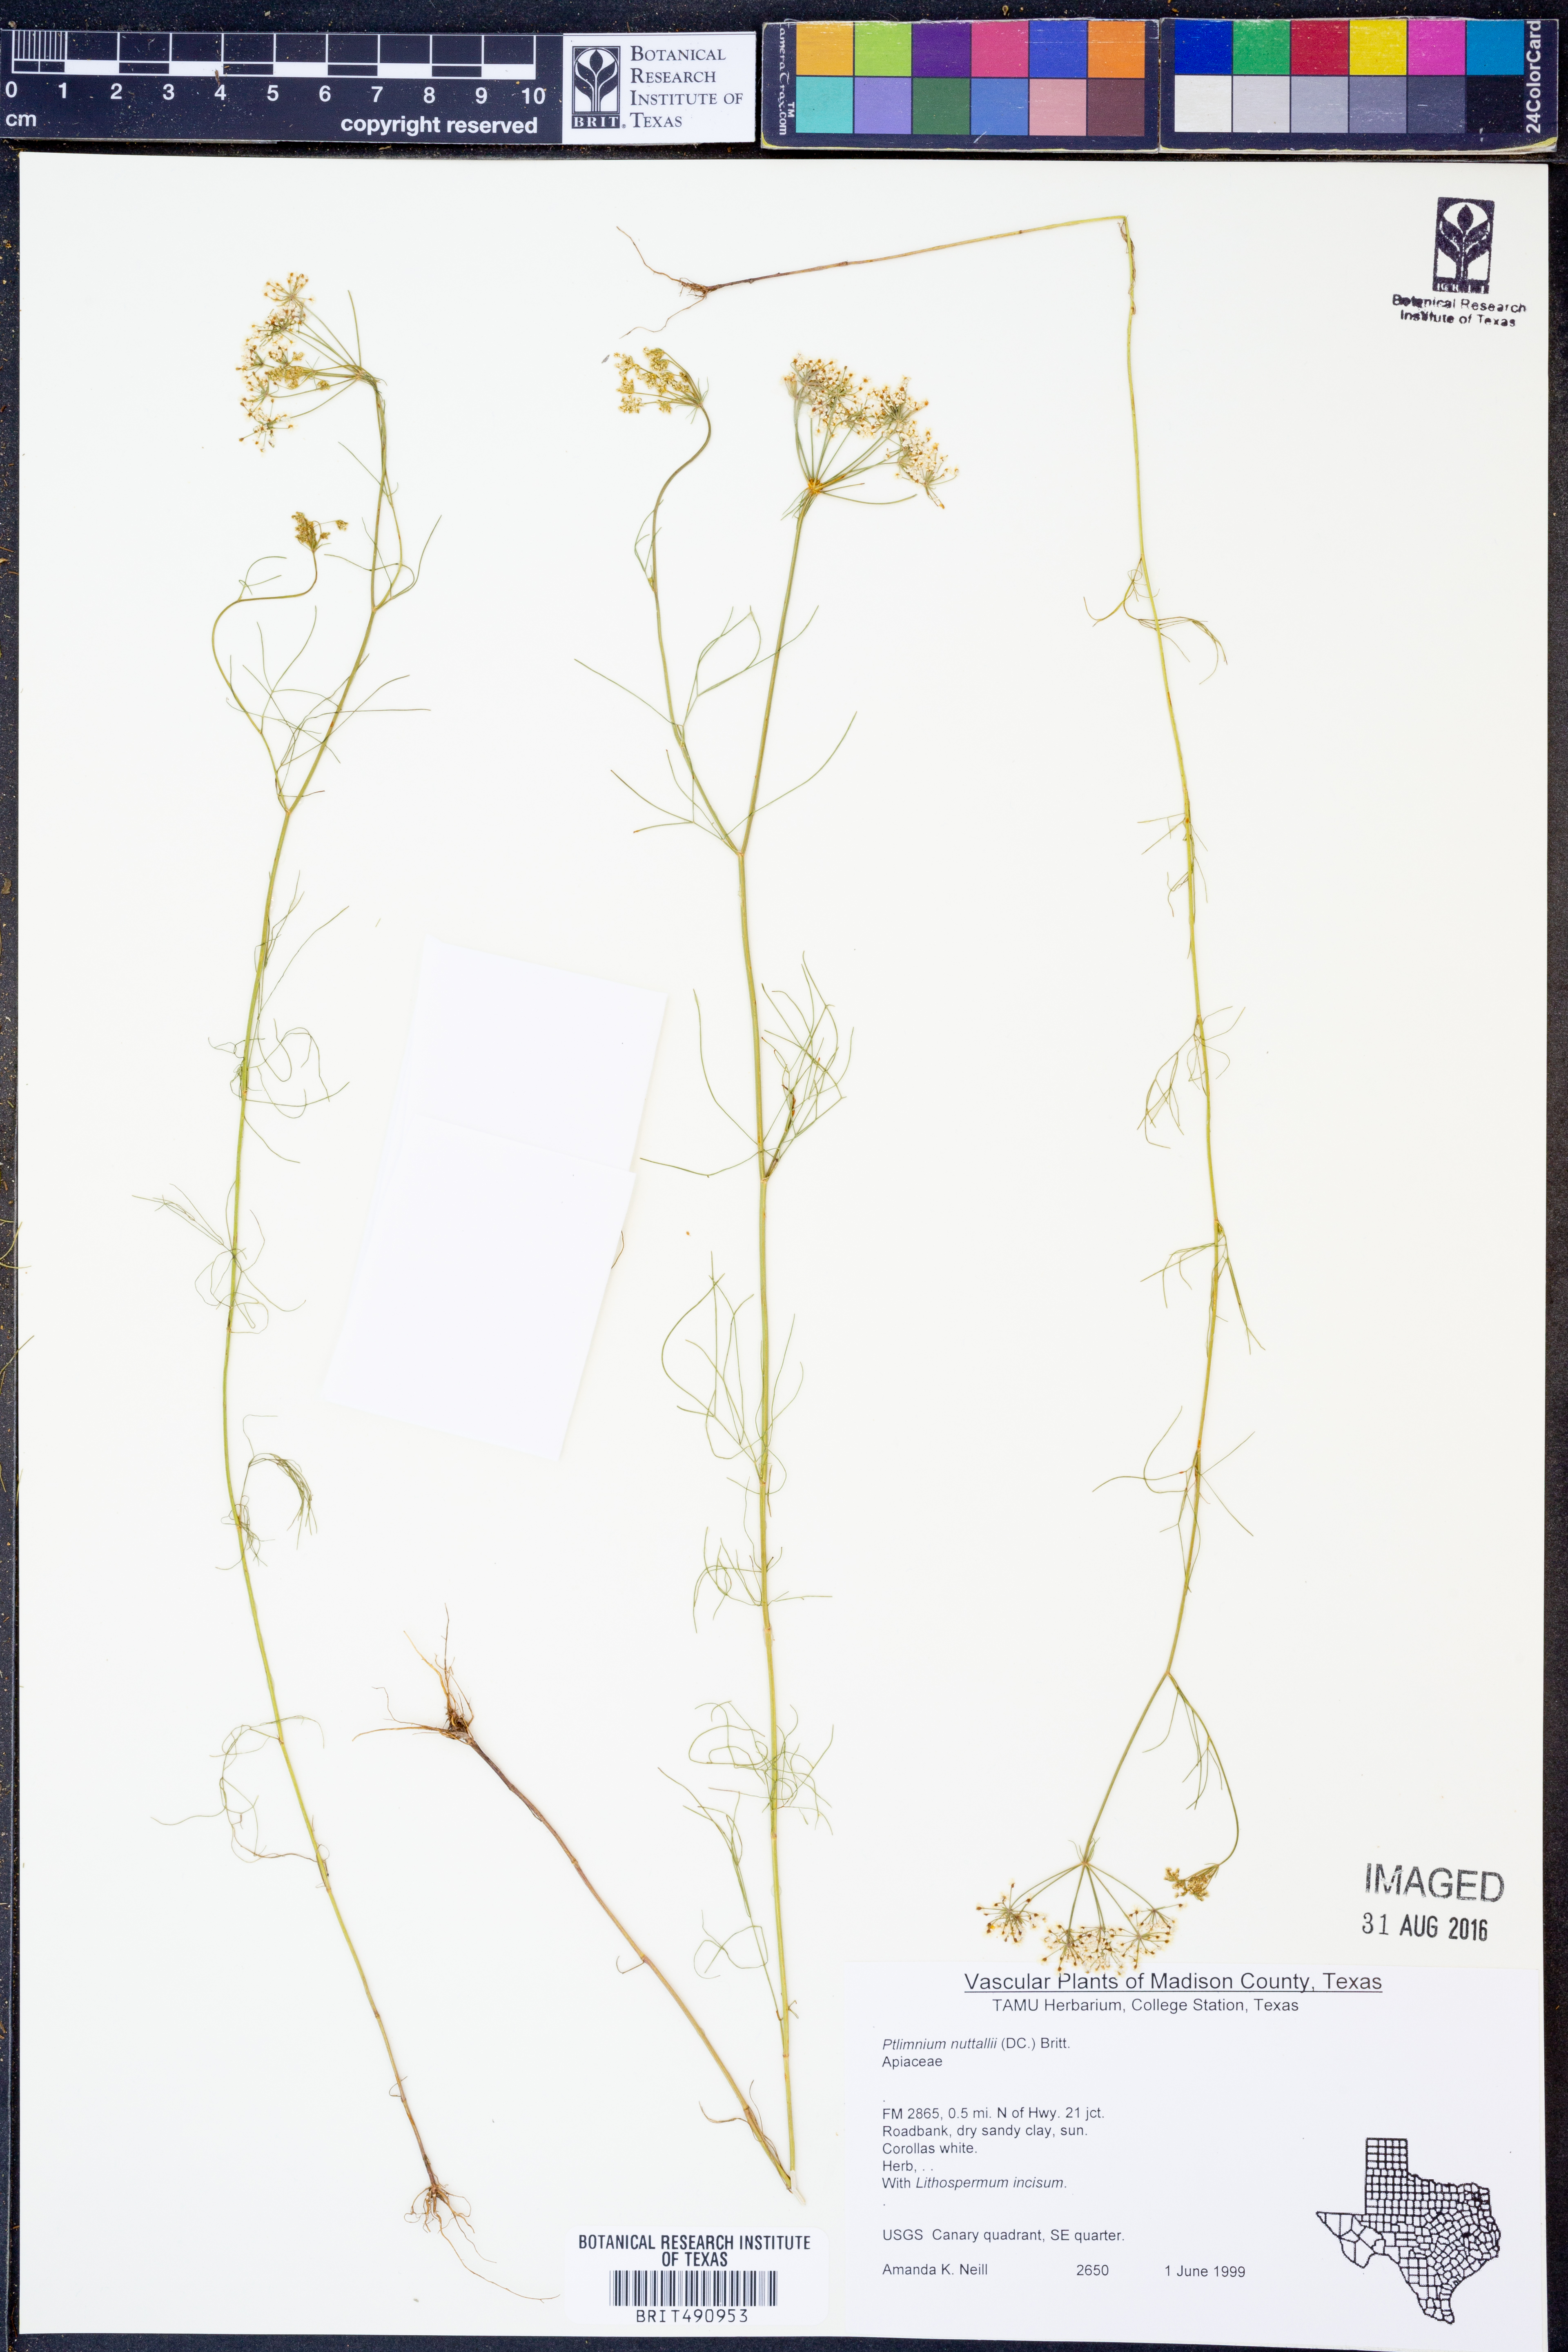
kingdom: Plantae
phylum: Tracheophyta
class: Magnoliopsida
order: Apiales
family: Apiaceae
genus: Ptilimnium
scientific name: Ptilimnium nuttallii
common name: Ozark bishop's-weed
